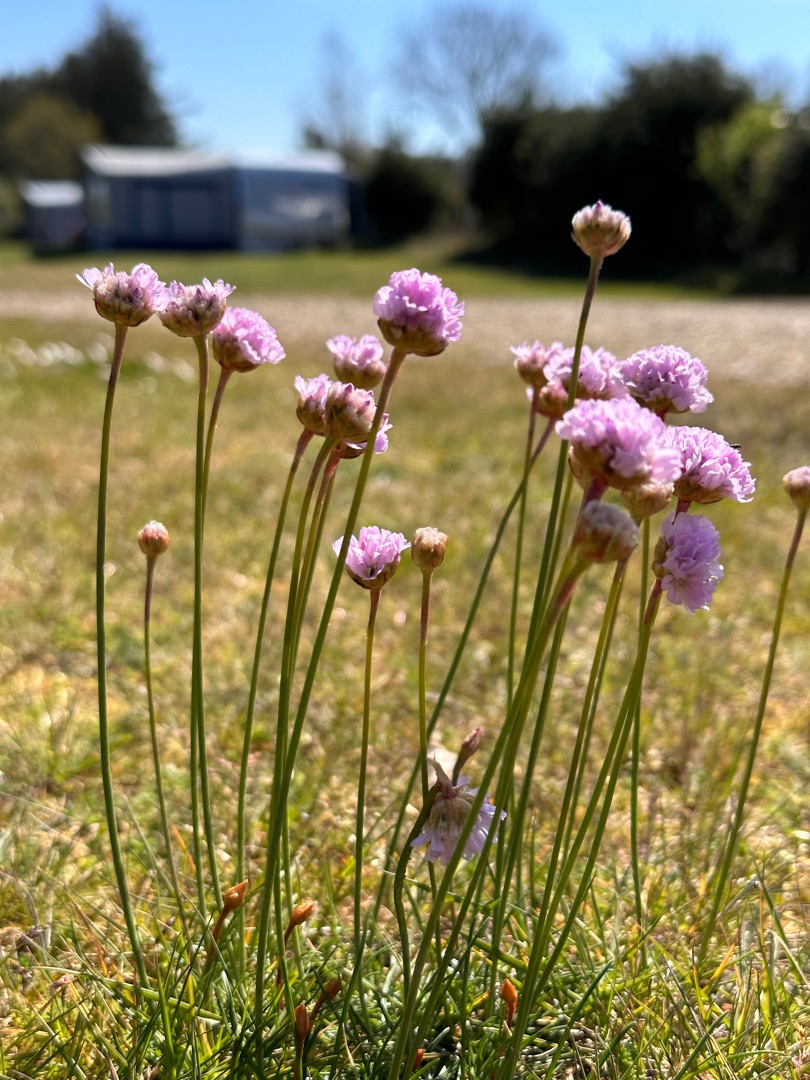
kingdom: Plantae
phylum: Tracheophyta
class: Magnoliopsida
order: Caryophyllales
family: Plumbaginaceae
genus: Armeria
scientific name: Armeria maritima
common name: Engelskgræs
